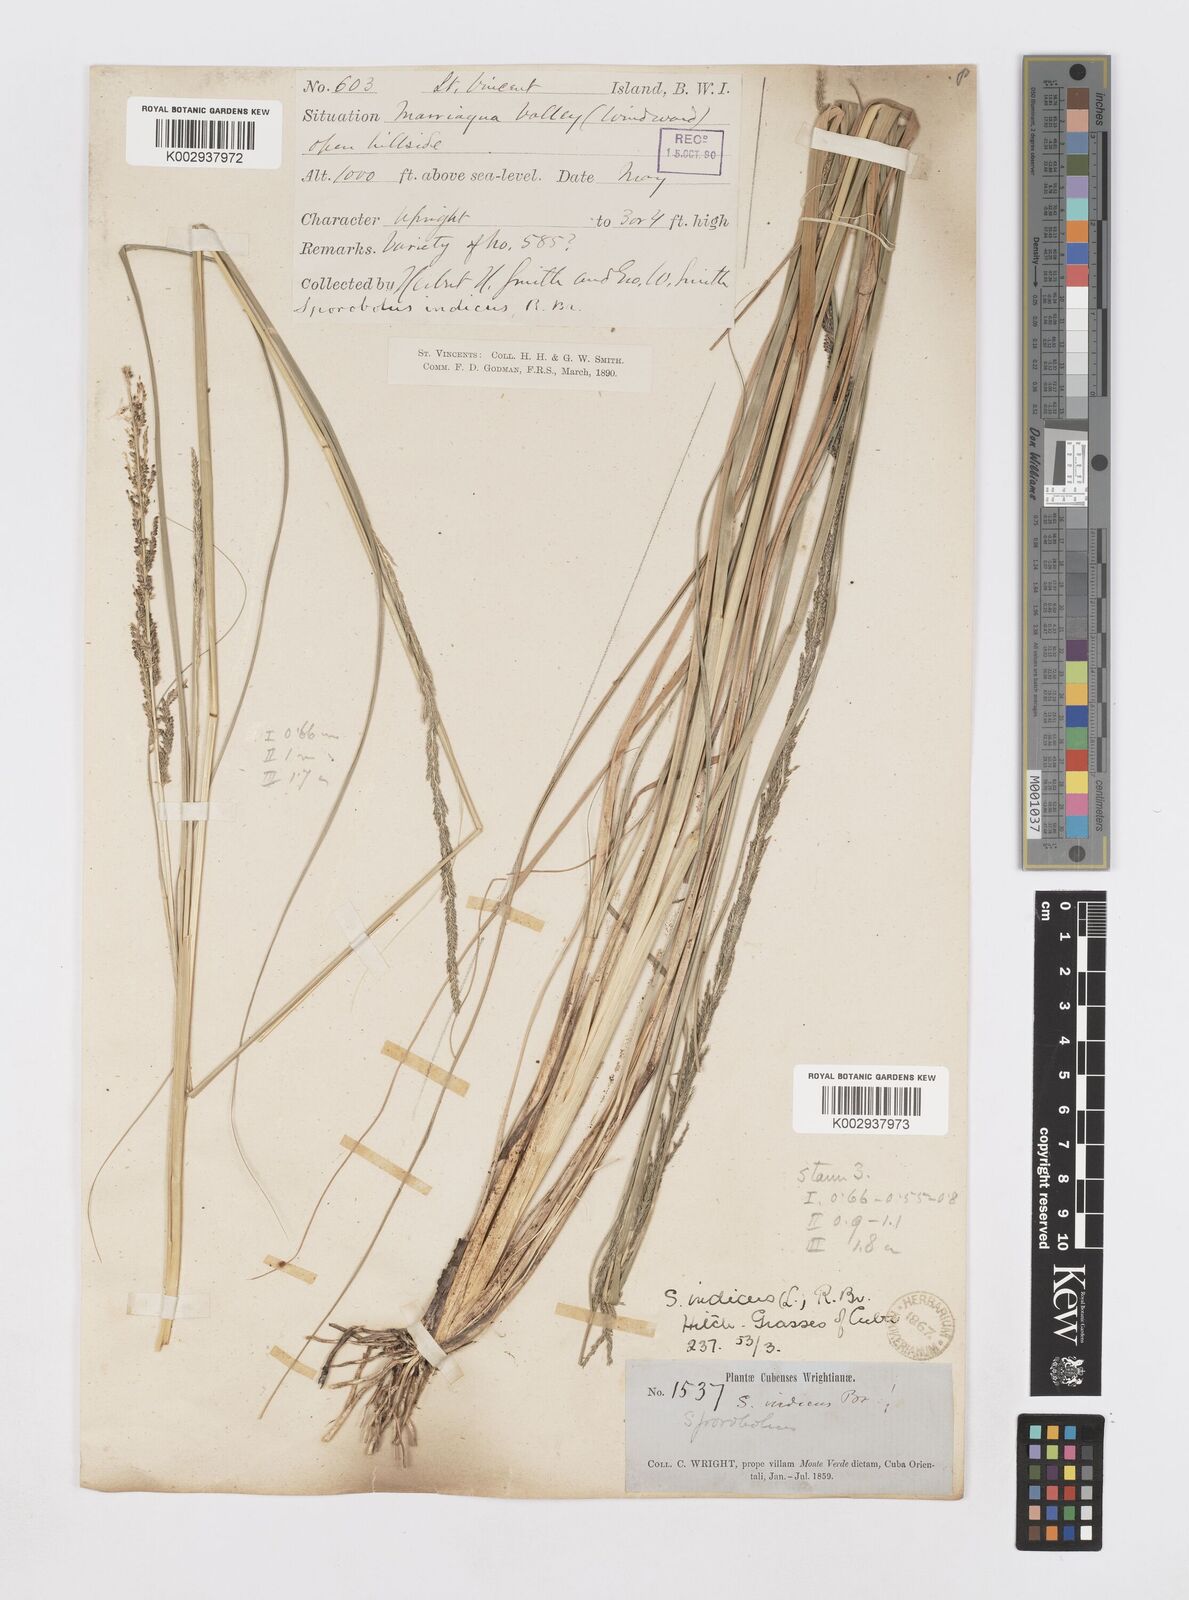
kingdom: Plantae
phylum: Tracheophyta
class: Liliopsida
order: Poales
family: Poaceae
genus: Sporobolus
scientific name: Sporobolus indicus
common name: Smut grass
